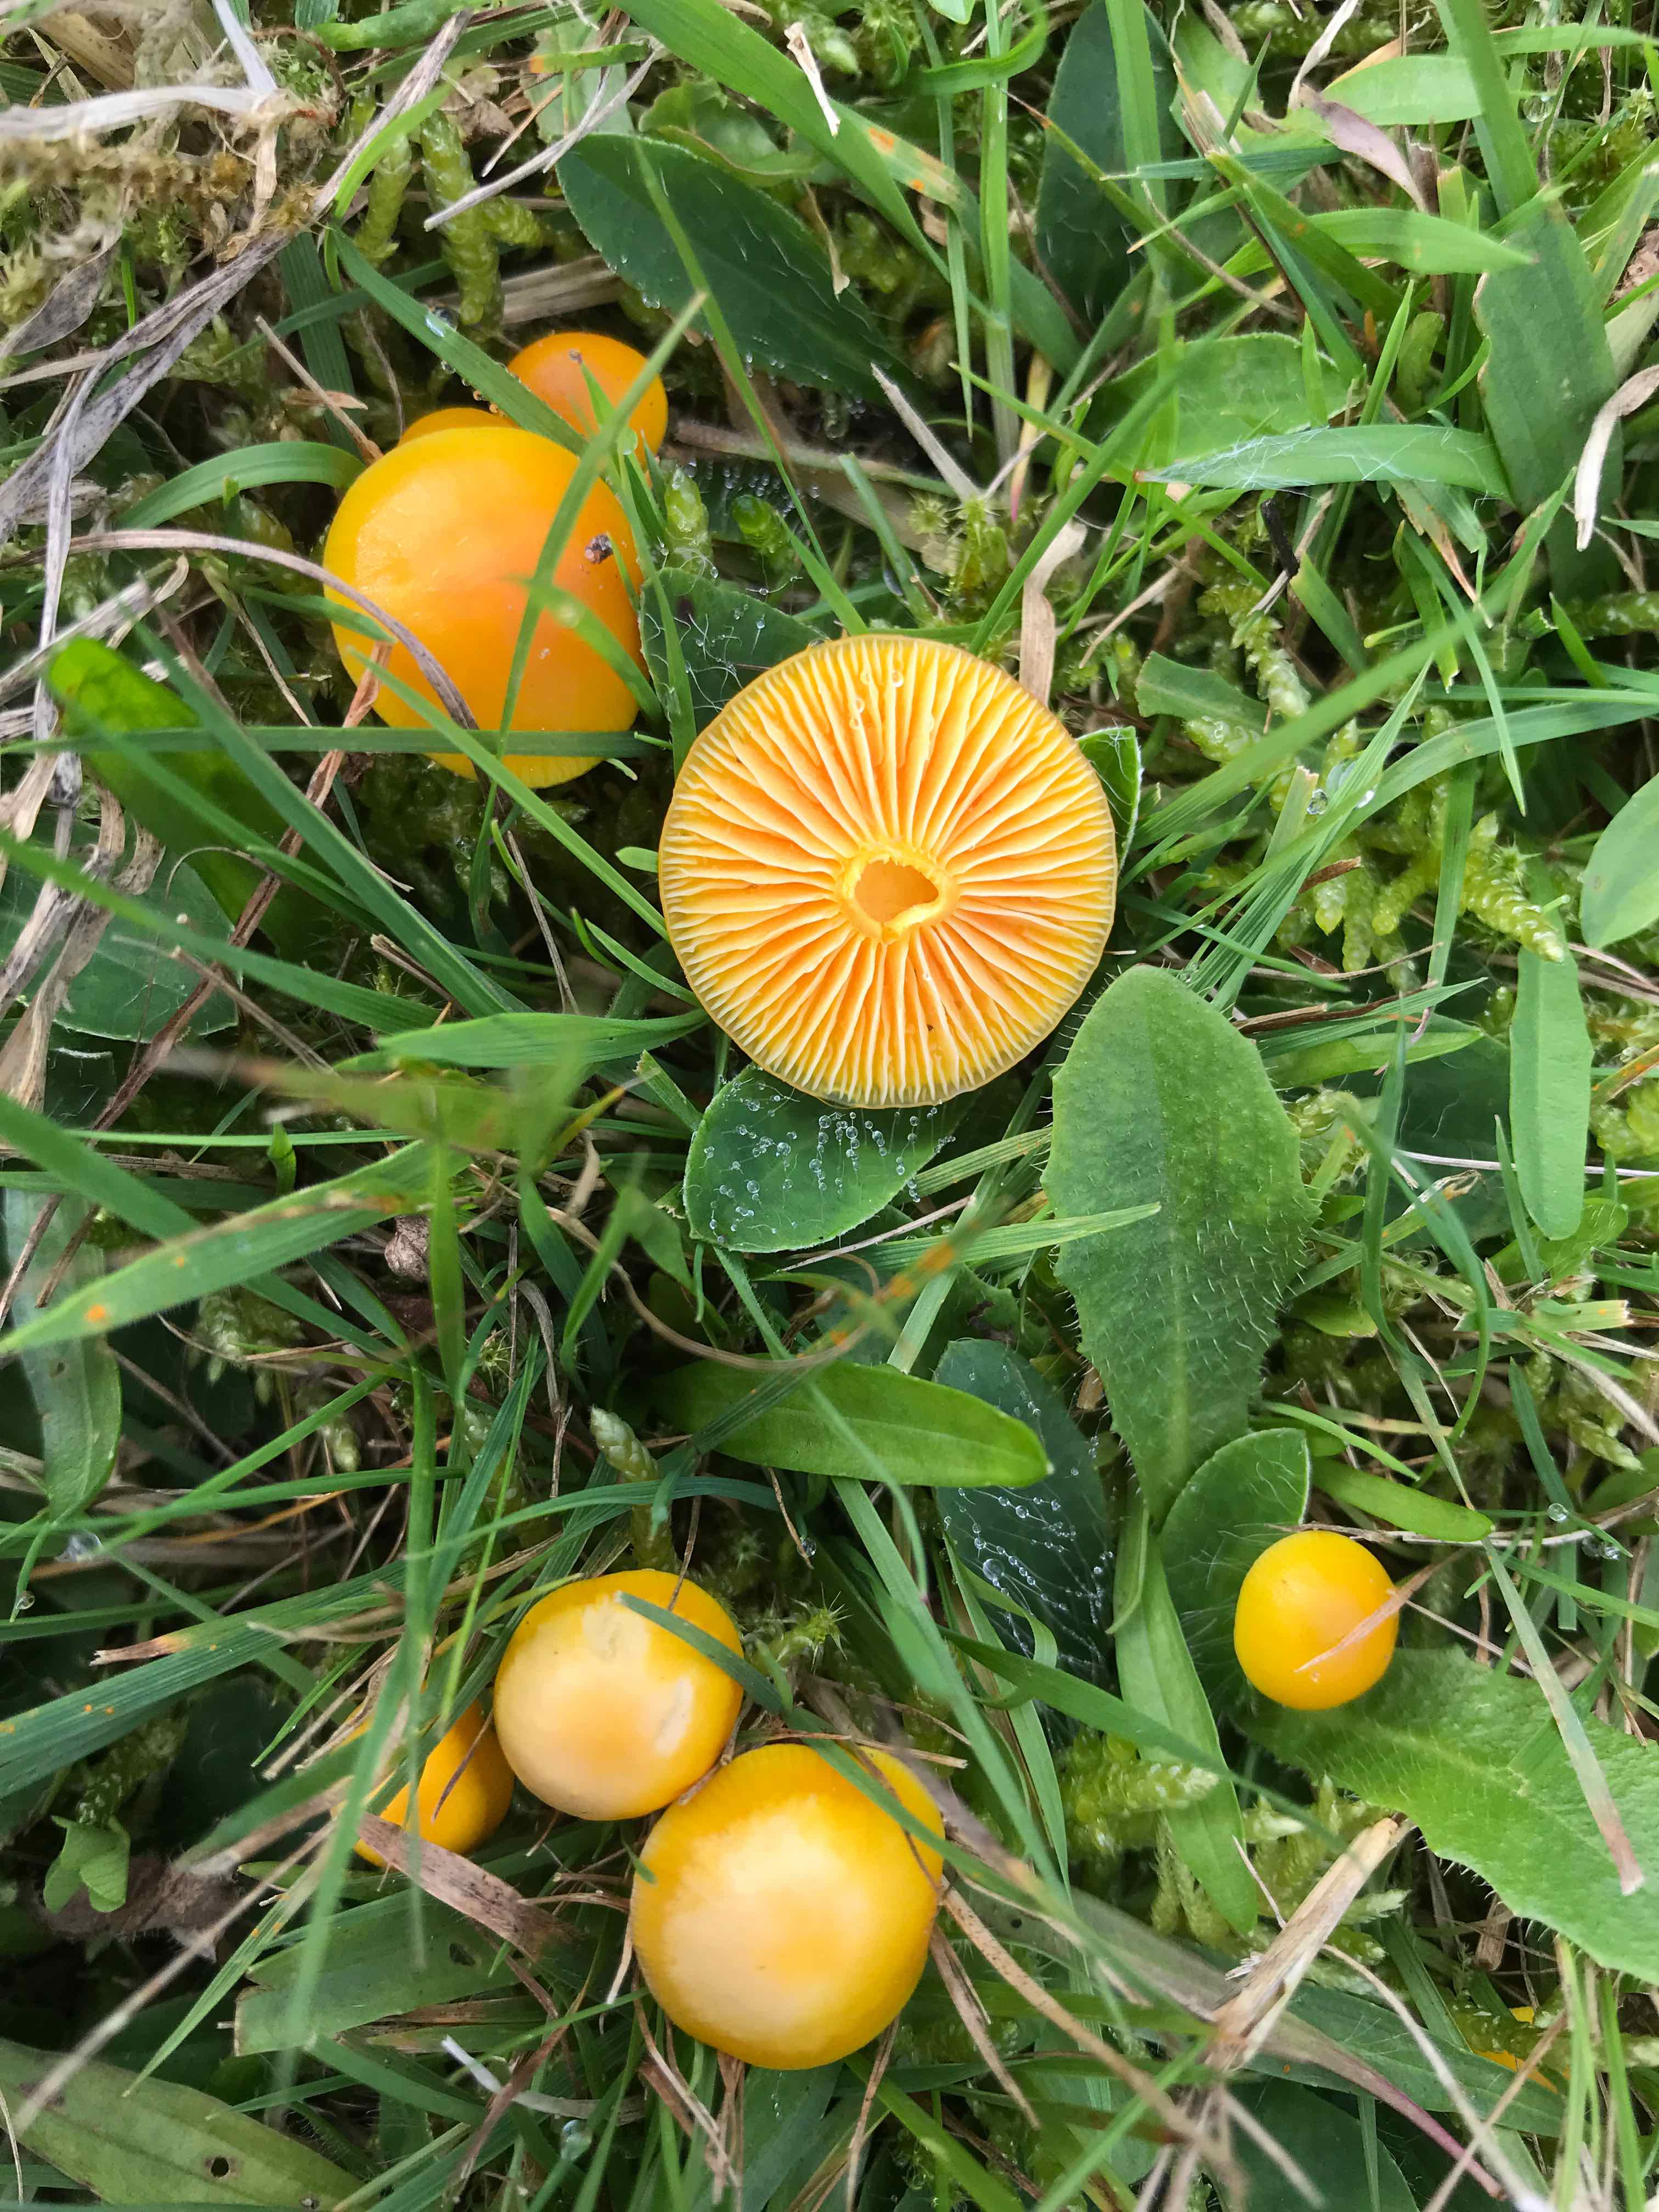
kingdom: Fungi
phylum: Basidiomycota
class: Agaricomycetes
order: Agaricales
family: Hygrophoraceae
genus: Hygrocybe
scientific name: Hygrocybe chlorophana
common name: gul vokshat
